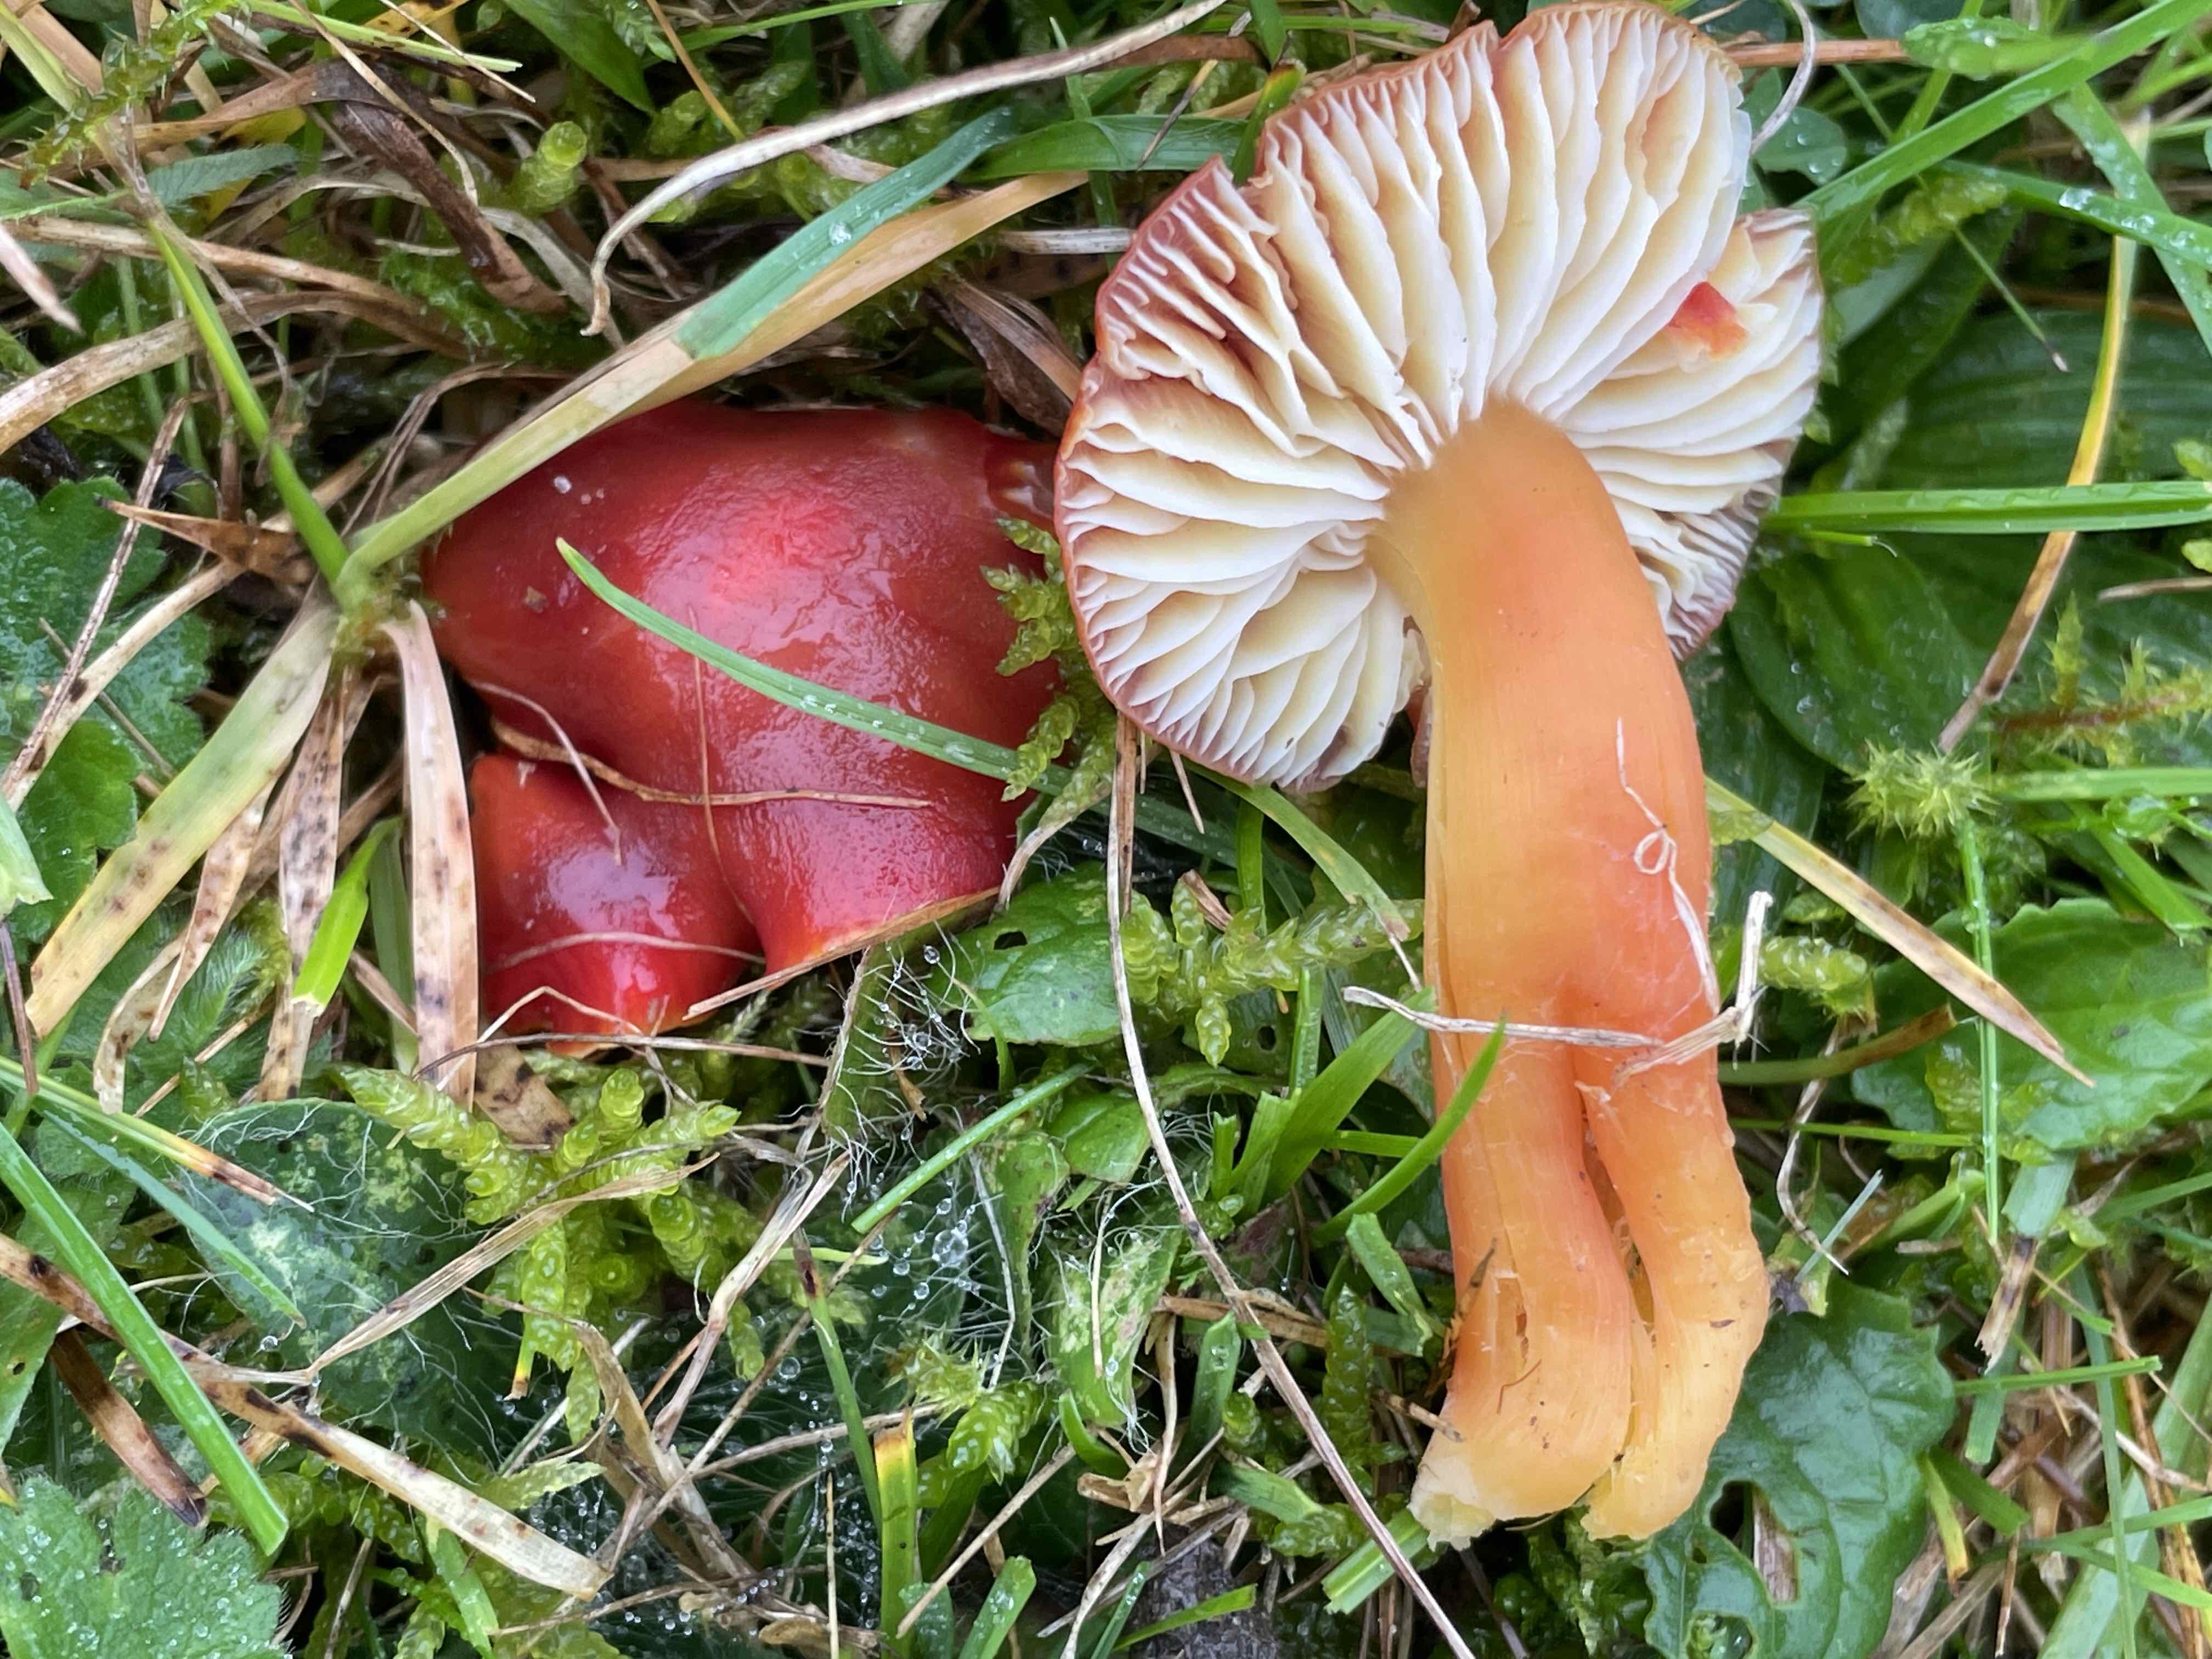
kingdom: Fungi
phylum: Basidiomycota
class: Agaricomycetes
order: Agaricales
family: Hygrophoraceae
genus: Hygrocybe
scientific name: Hygrocybe coccinea
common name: cinnober-vokshat
